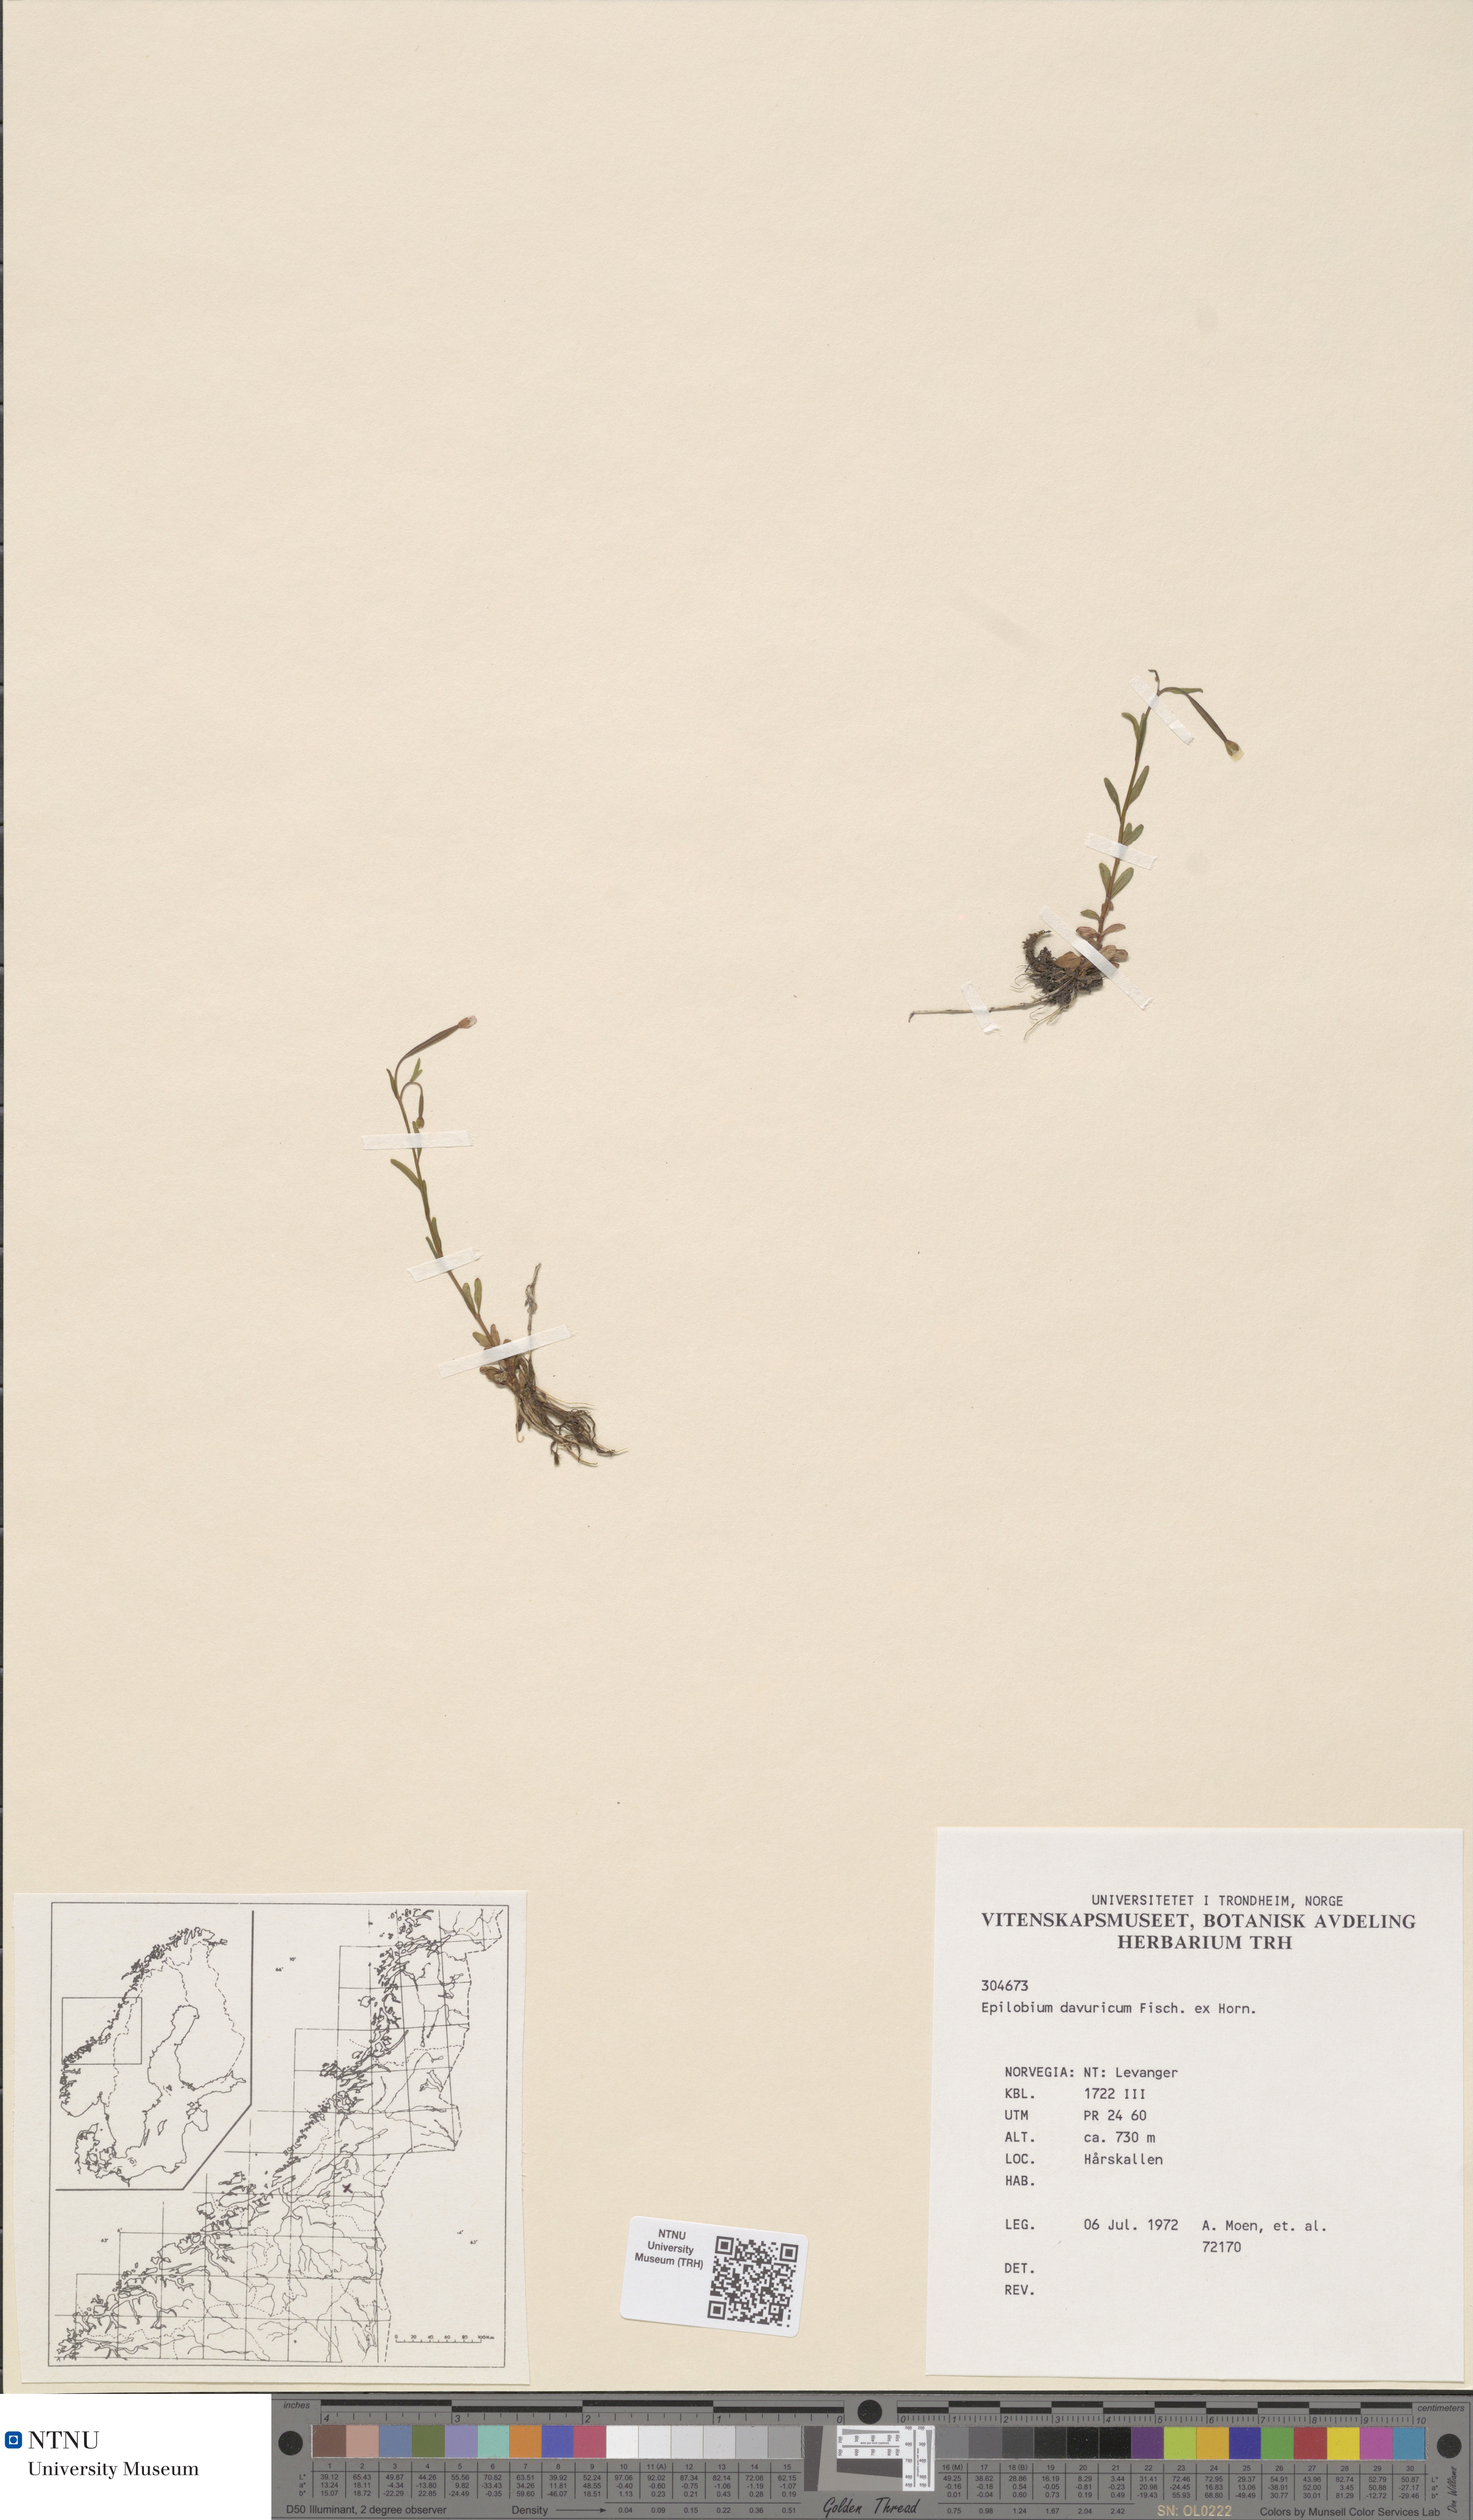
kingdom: Plantae
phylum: Tracheophyta
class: Magnoliopsida
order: Myrtales
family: Onagraceae
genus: Epilobium
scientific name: Epilobium davuricum
